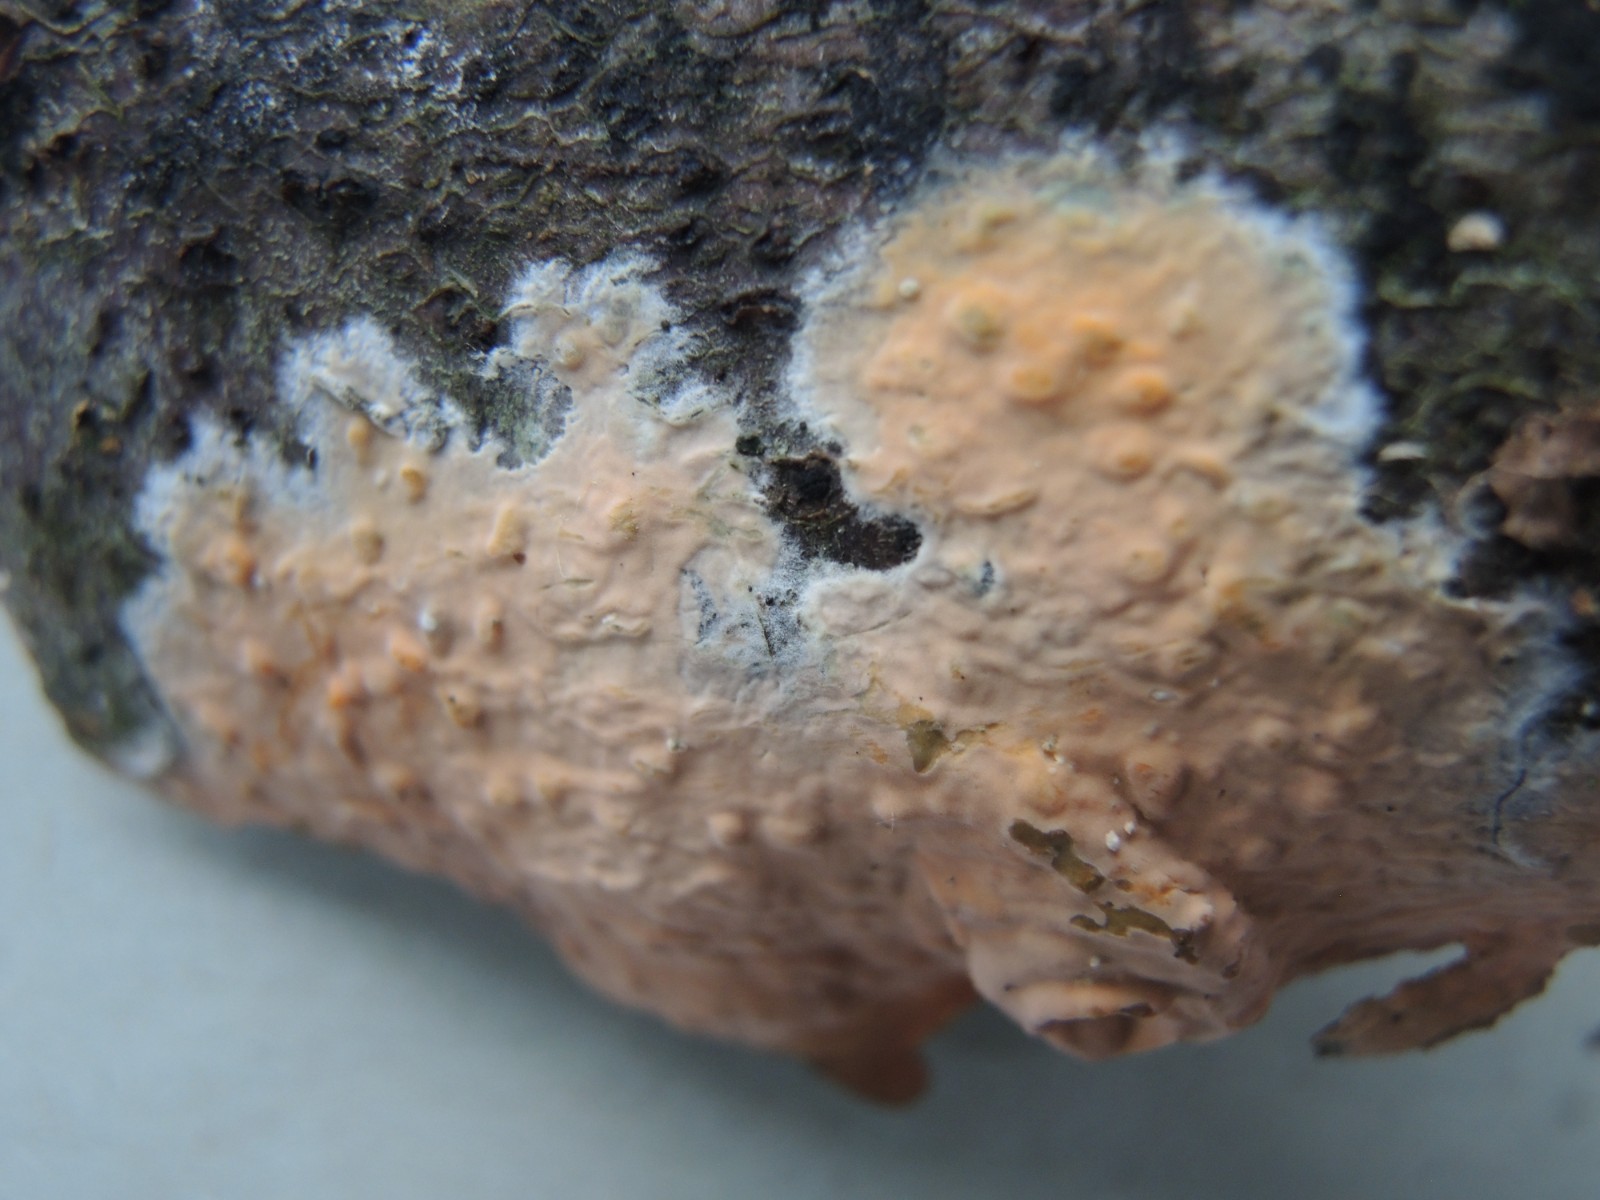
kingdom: Fungi
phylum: Basidiomycota
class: Agaricomycetes
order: Russulales
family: Peniophoraceae
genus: Peniophora
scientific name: Peniophora incarnata
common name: laksefarvet voksskind
